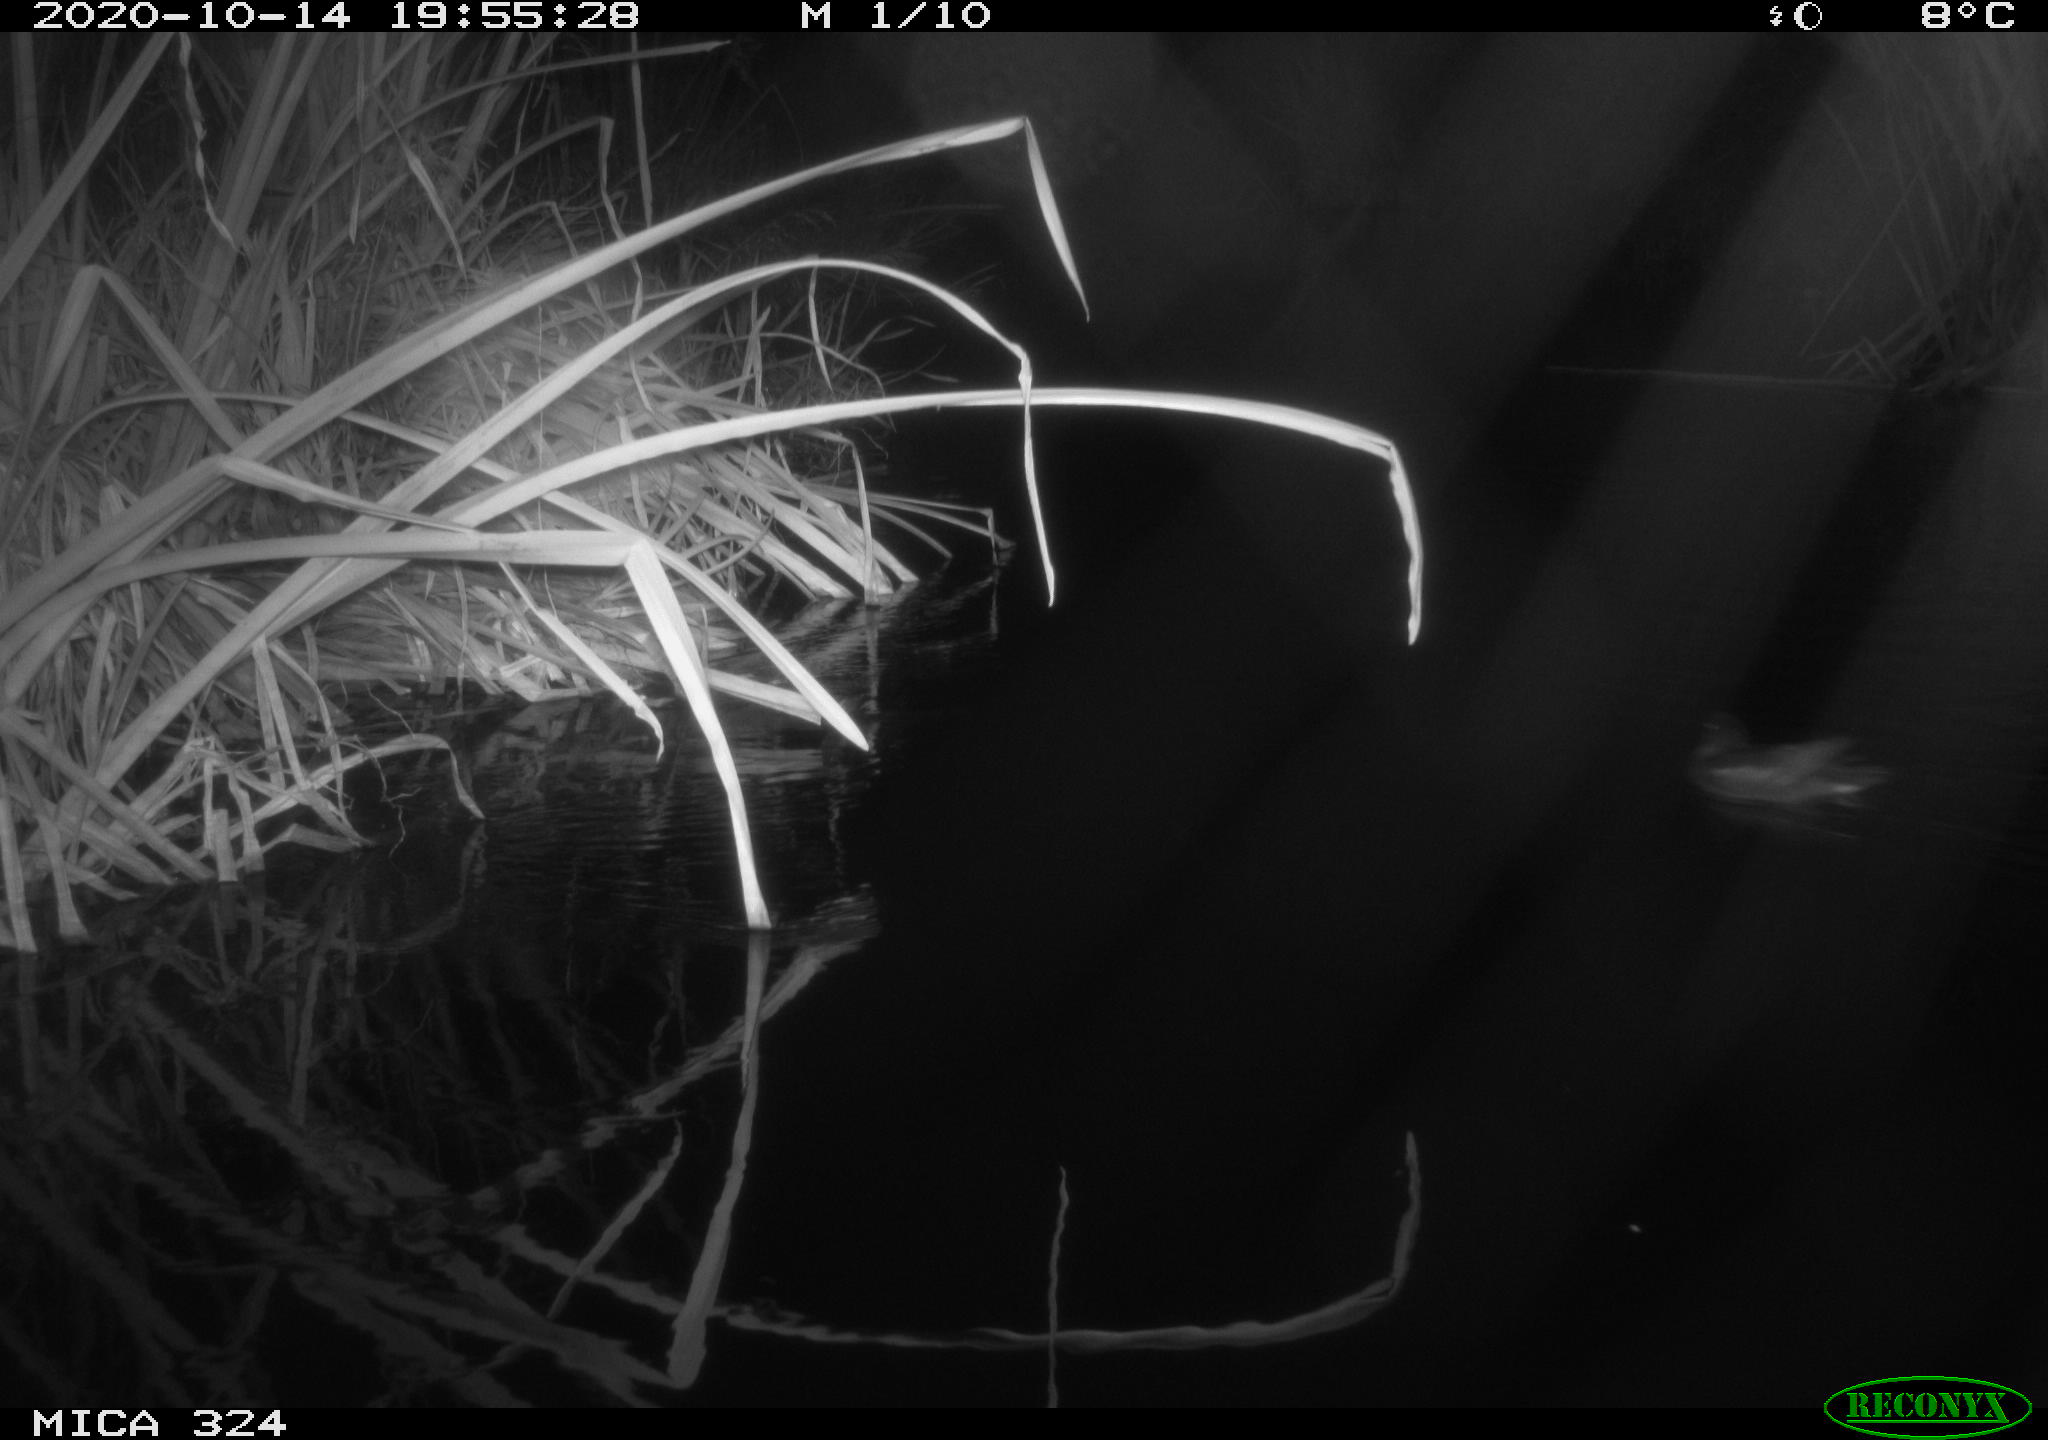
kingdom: Animalia
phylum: Chordata
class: Mammalia
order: Rodentia
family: Cricetidae
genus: Ondatra
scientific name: Ondatra zibethicus
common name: Muskrat
